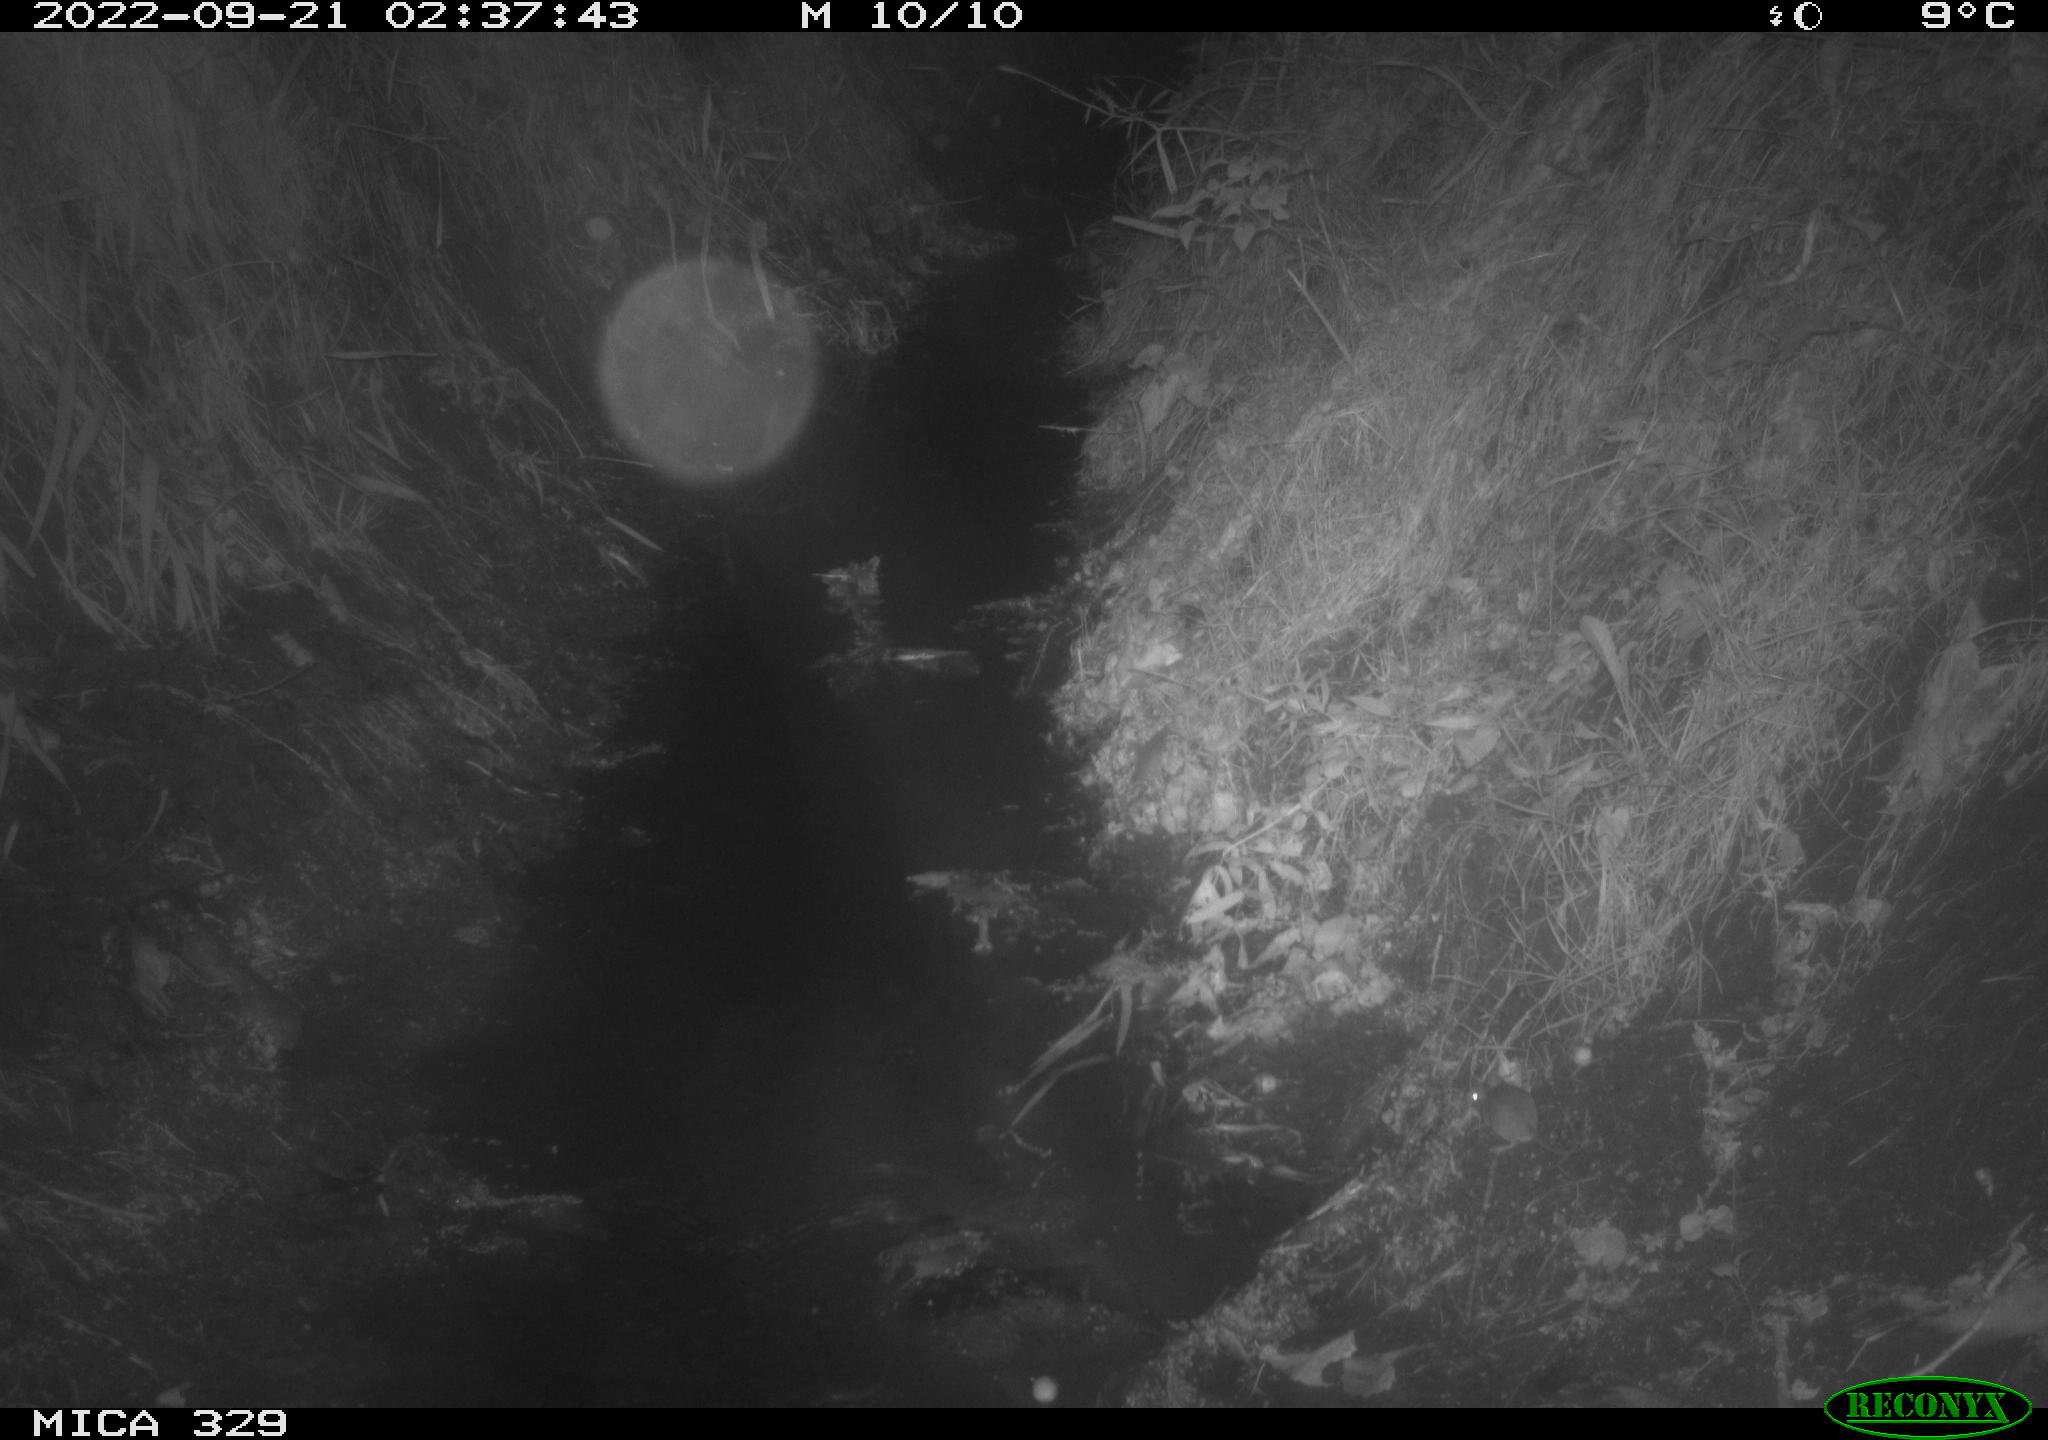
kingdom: Animalia
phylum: Chordata
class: Mammalia
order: Rodentia
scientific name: Rodentia
